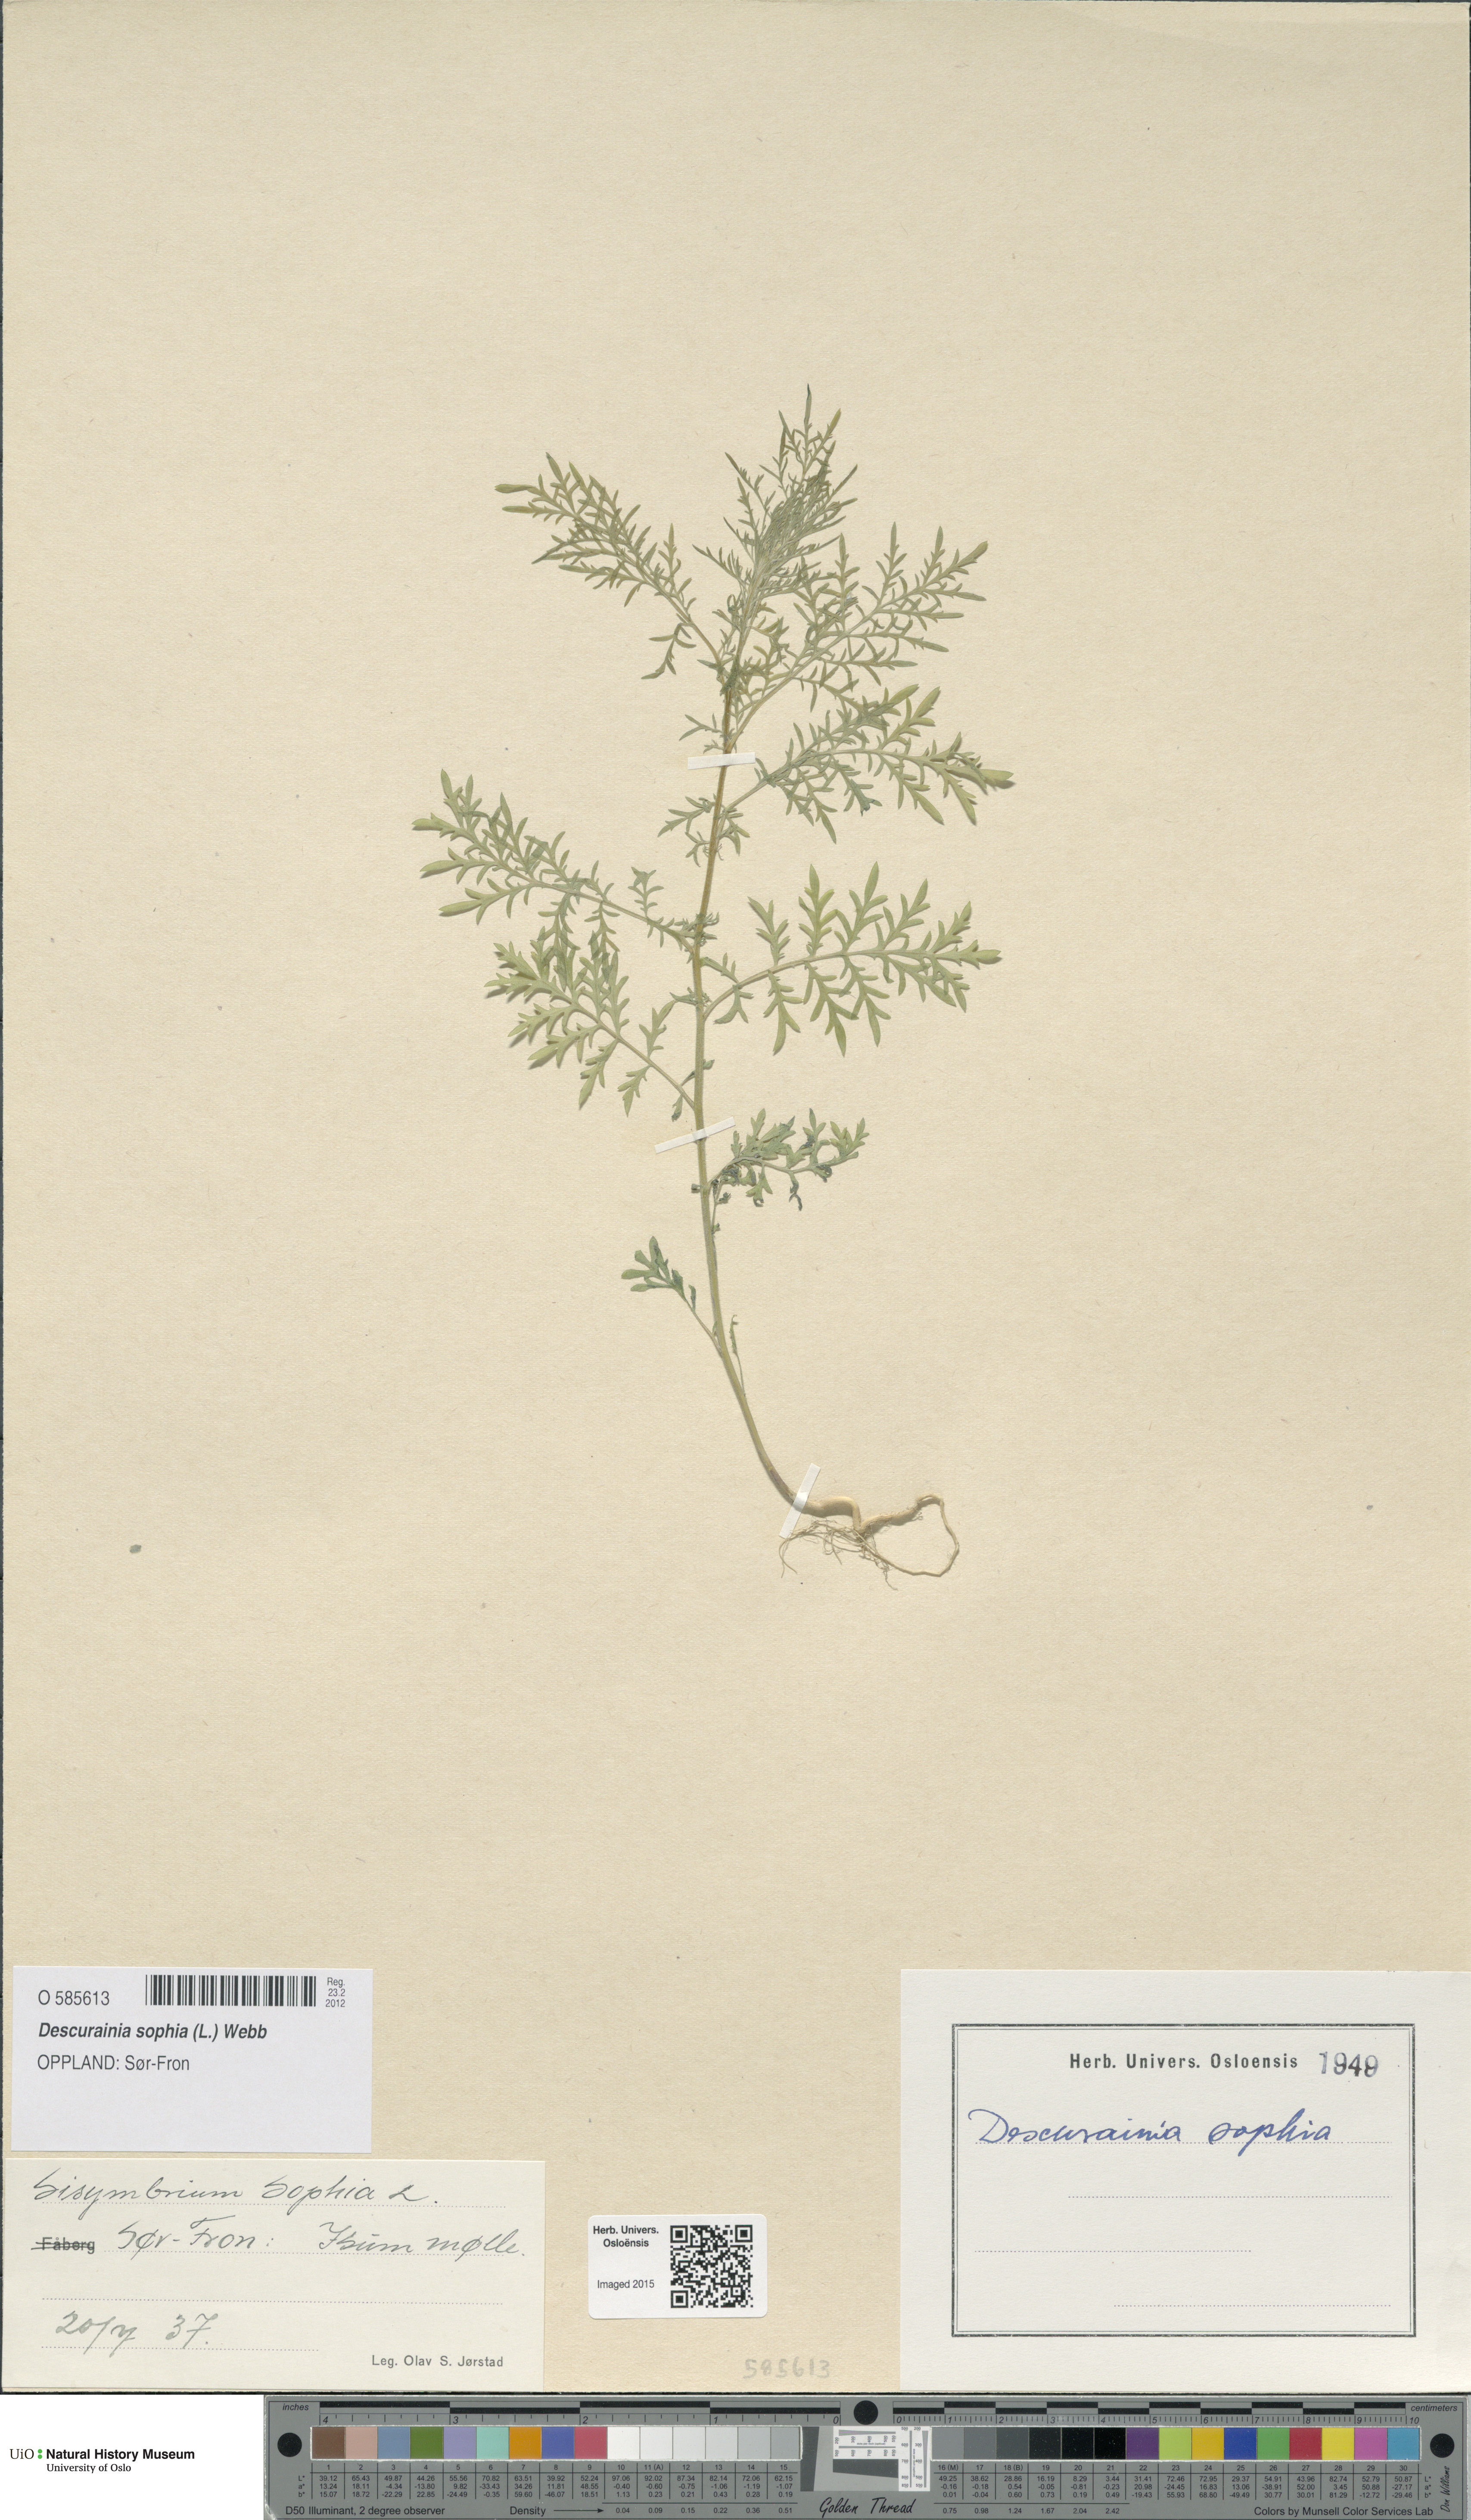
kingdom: Plantae
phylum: Tracheophyta
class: Magnoliopsida
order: Brassicales
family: Brassicaceae
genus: Descurainia
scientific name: Descurainia sophia
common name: Flixweed
